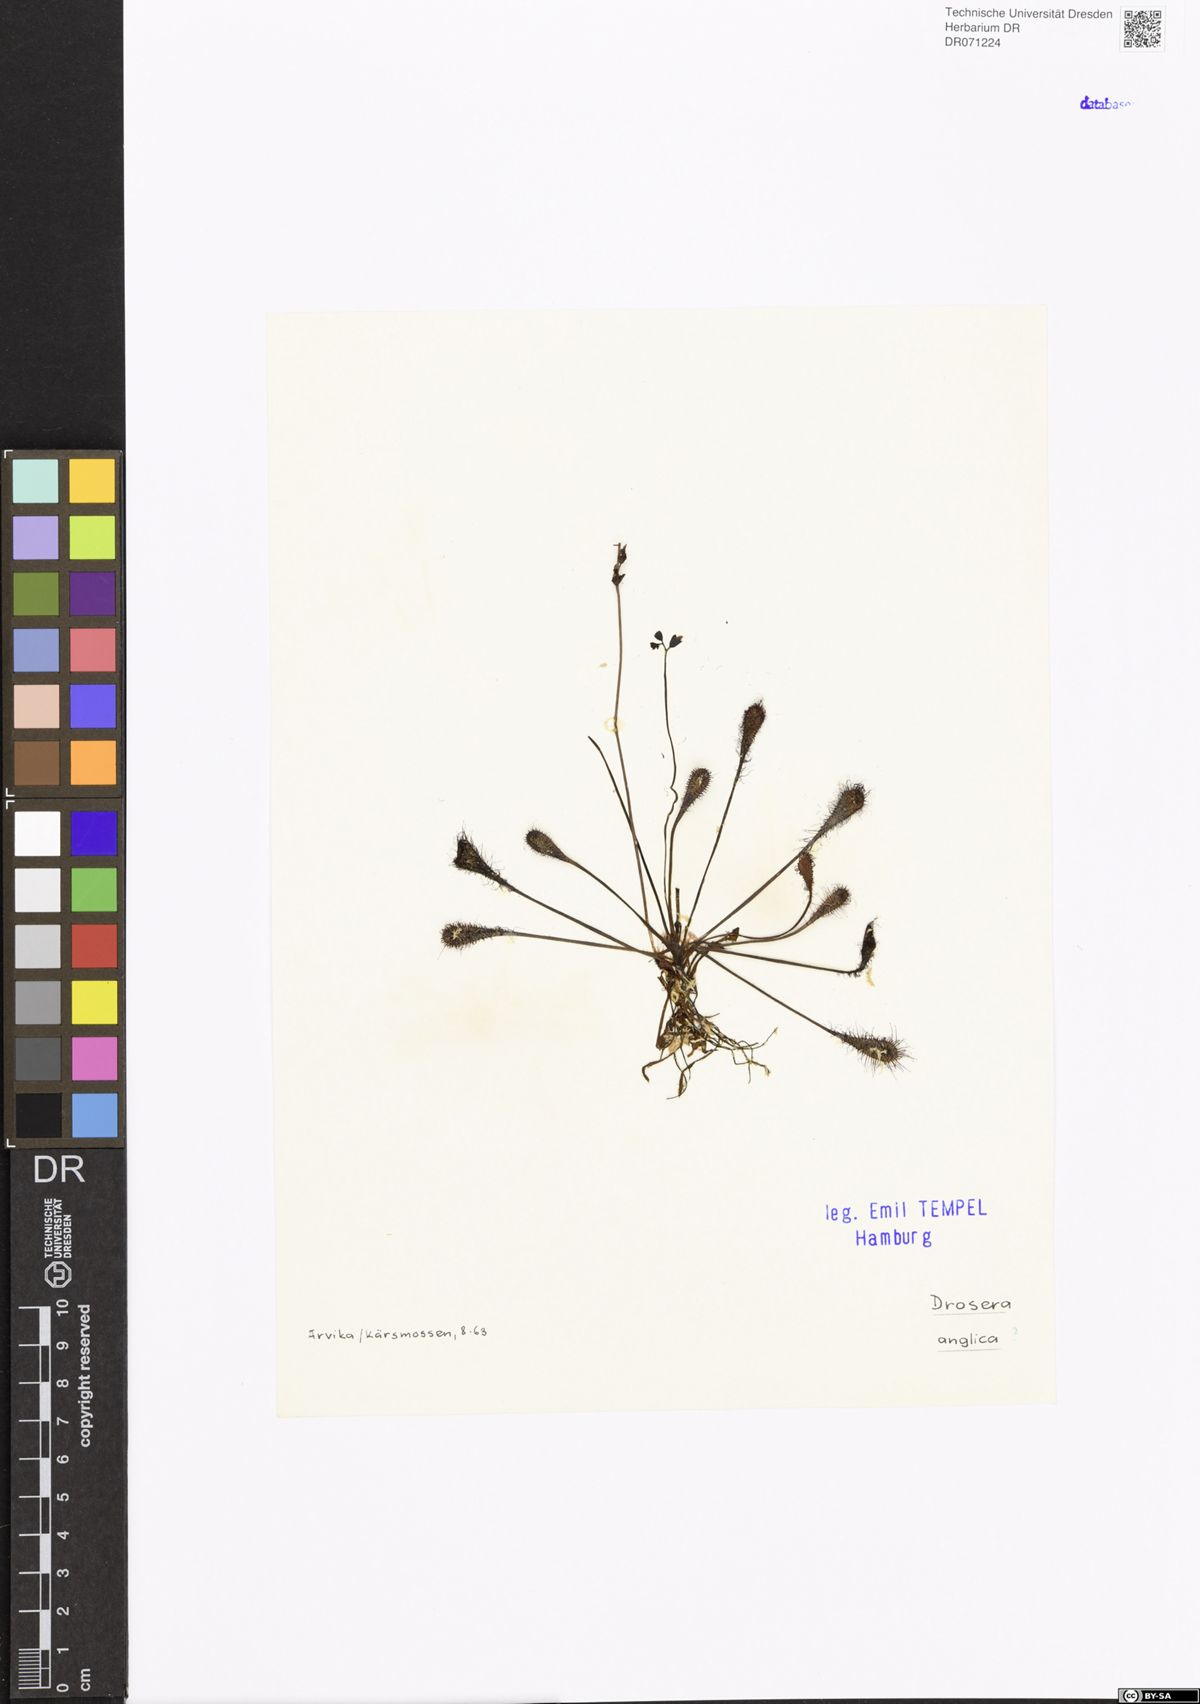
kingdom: Plantae
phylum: Tracheophyta
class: Magnoliopsida
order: Caryophyllales
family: Droseraceae
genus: Drosera
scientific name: Drosera anglica
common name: Great sundew
